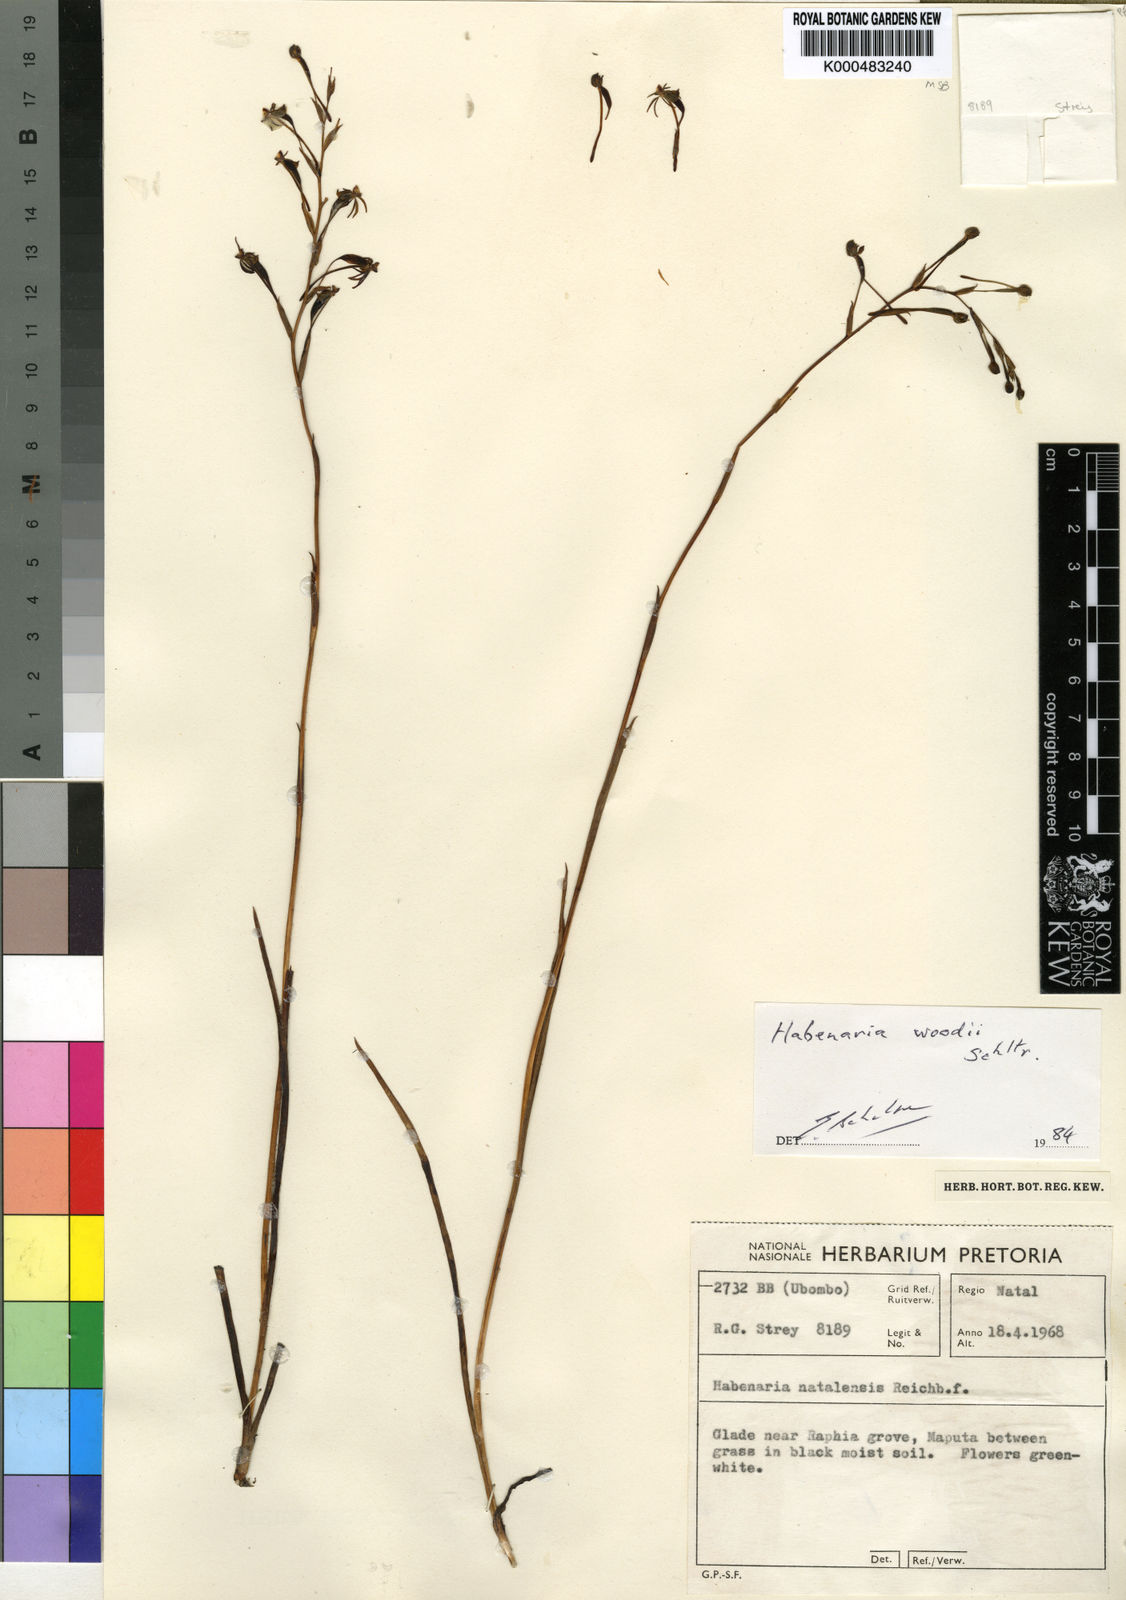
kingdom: Plantae
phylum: Tracheophyta
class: Liliopsida
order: Asparagales
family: Orchidaceae
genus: Habenaria
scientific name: Habenaria woodii
